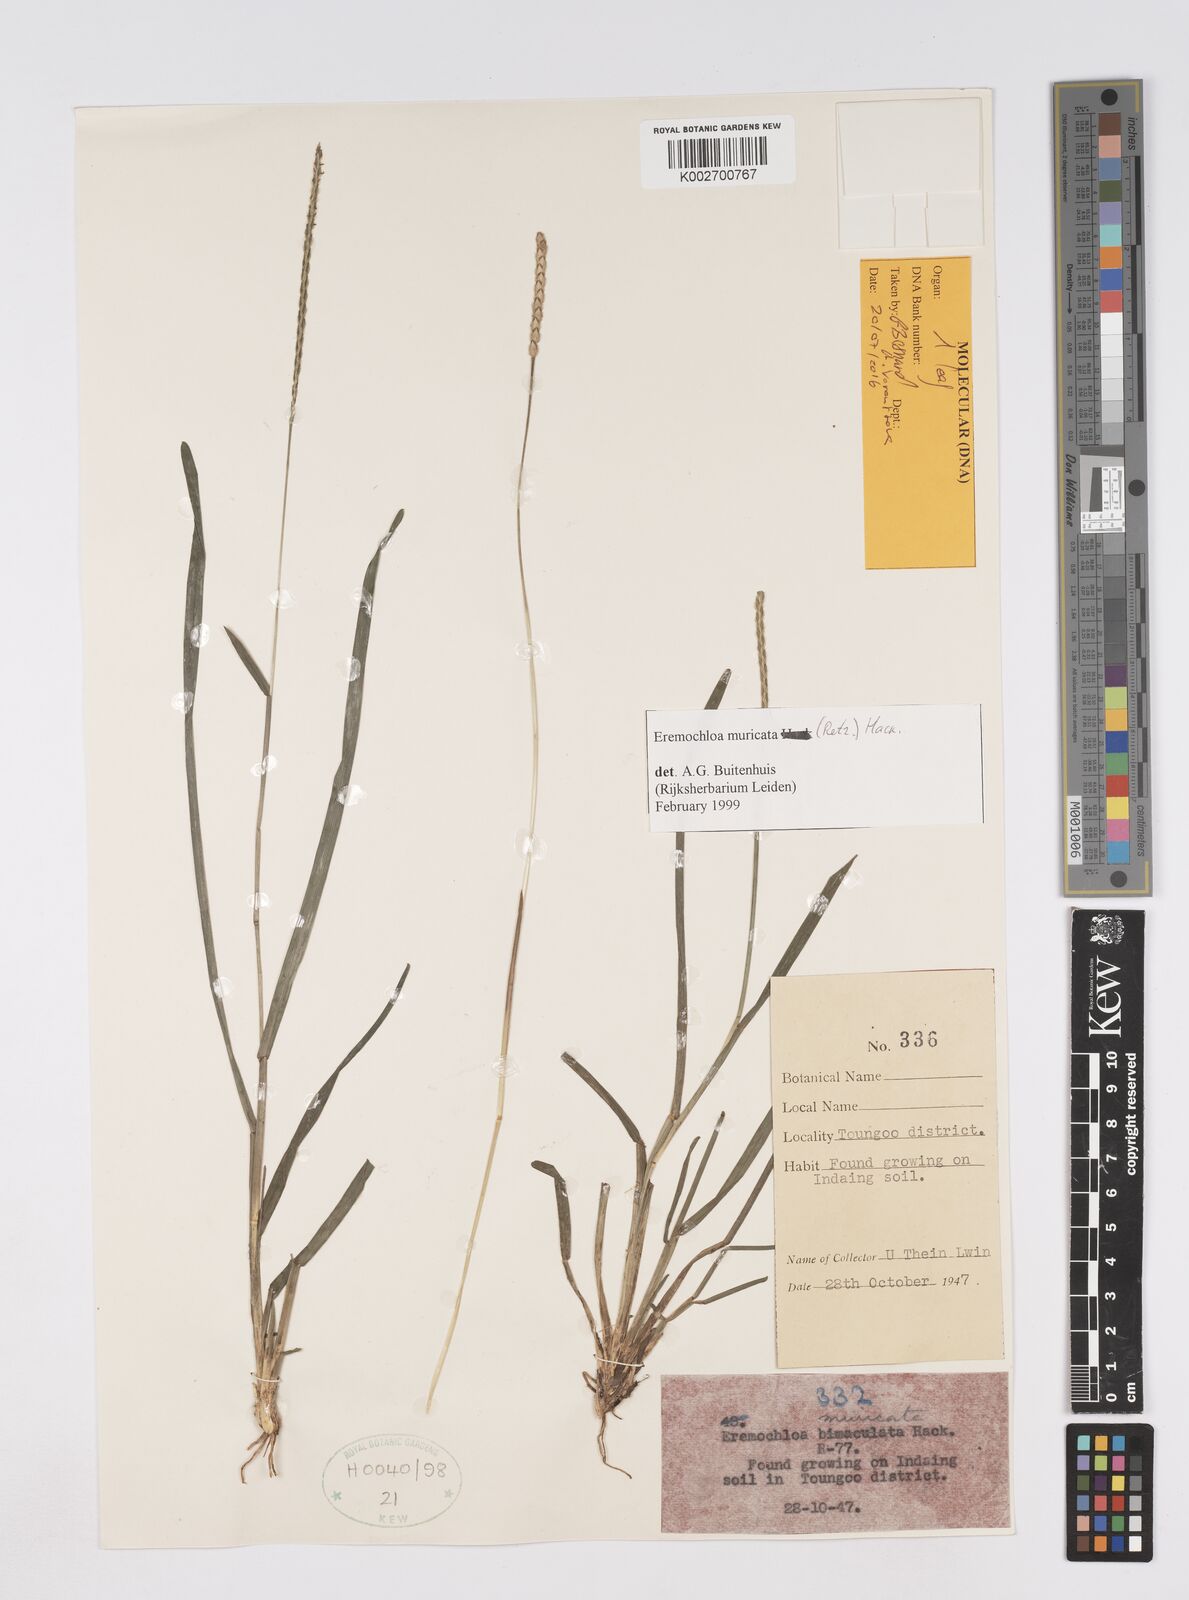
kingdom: Plantae
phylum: Tracheophyta
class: Liliopsida
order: Poales
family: Poaceae
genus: Eremochloa
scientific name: Eremochloa muricata
